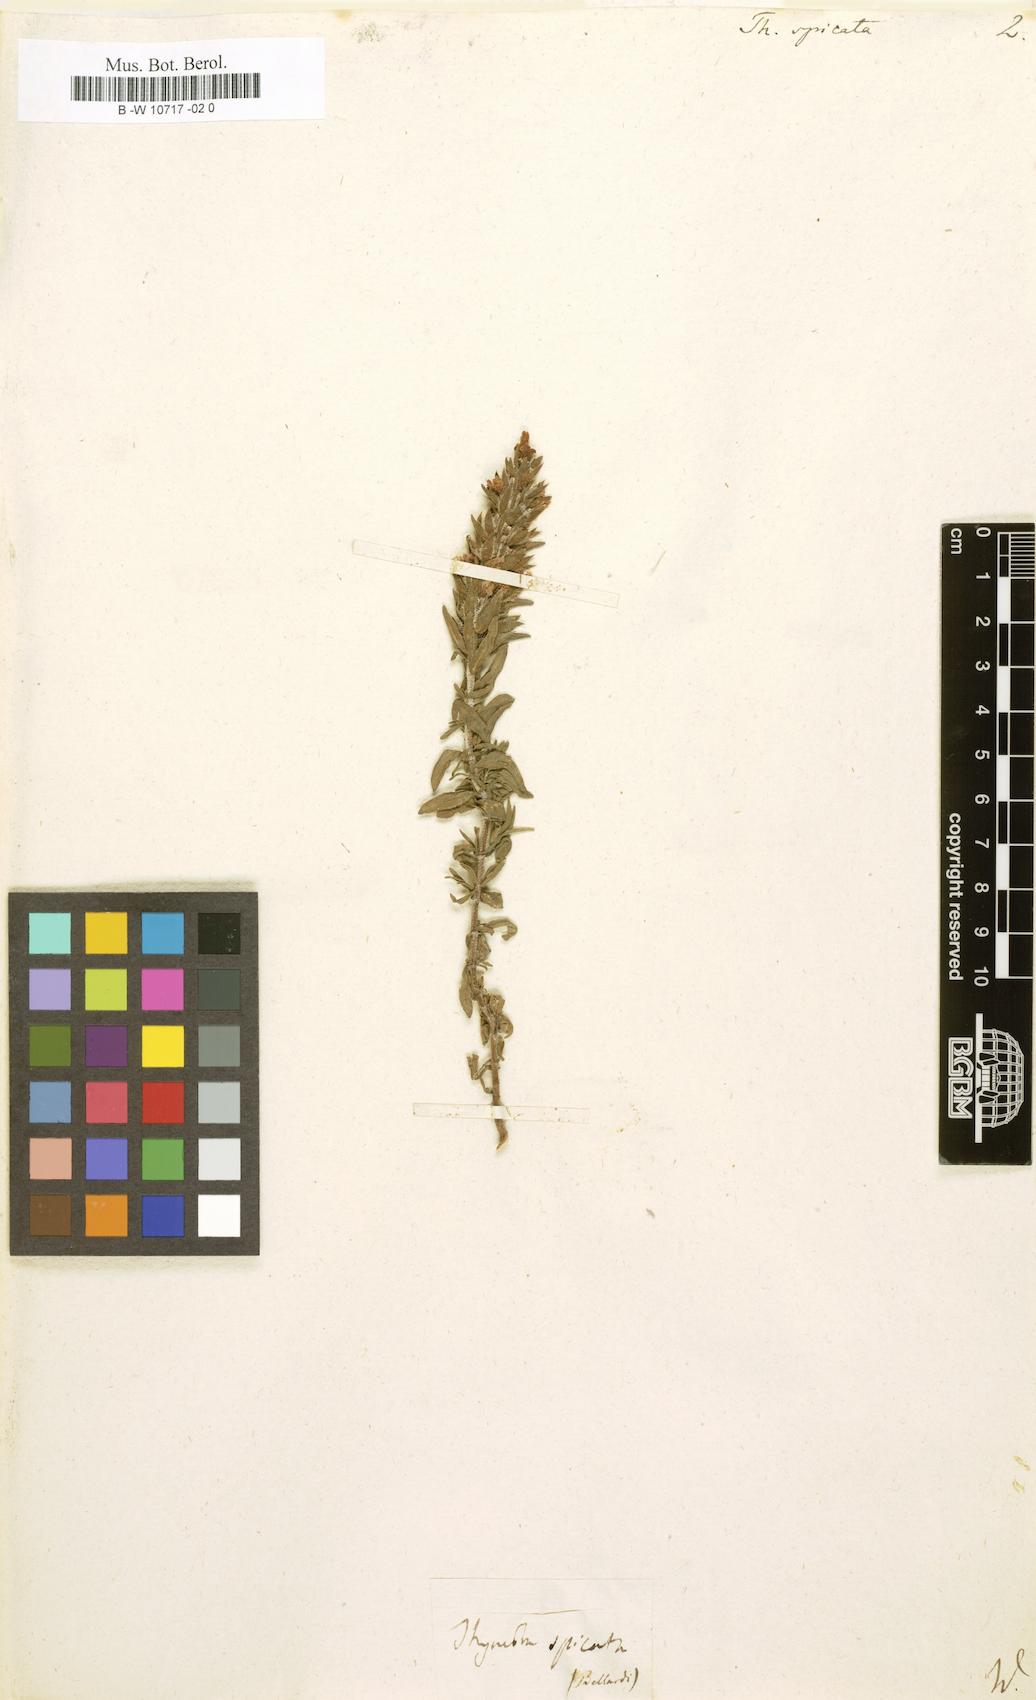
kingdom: Plantae
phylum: Tracheophyta
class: Magnoliopsida
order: Lamiales
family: Lamiaceae
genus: Thymbra
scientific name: Thymbra spicata
